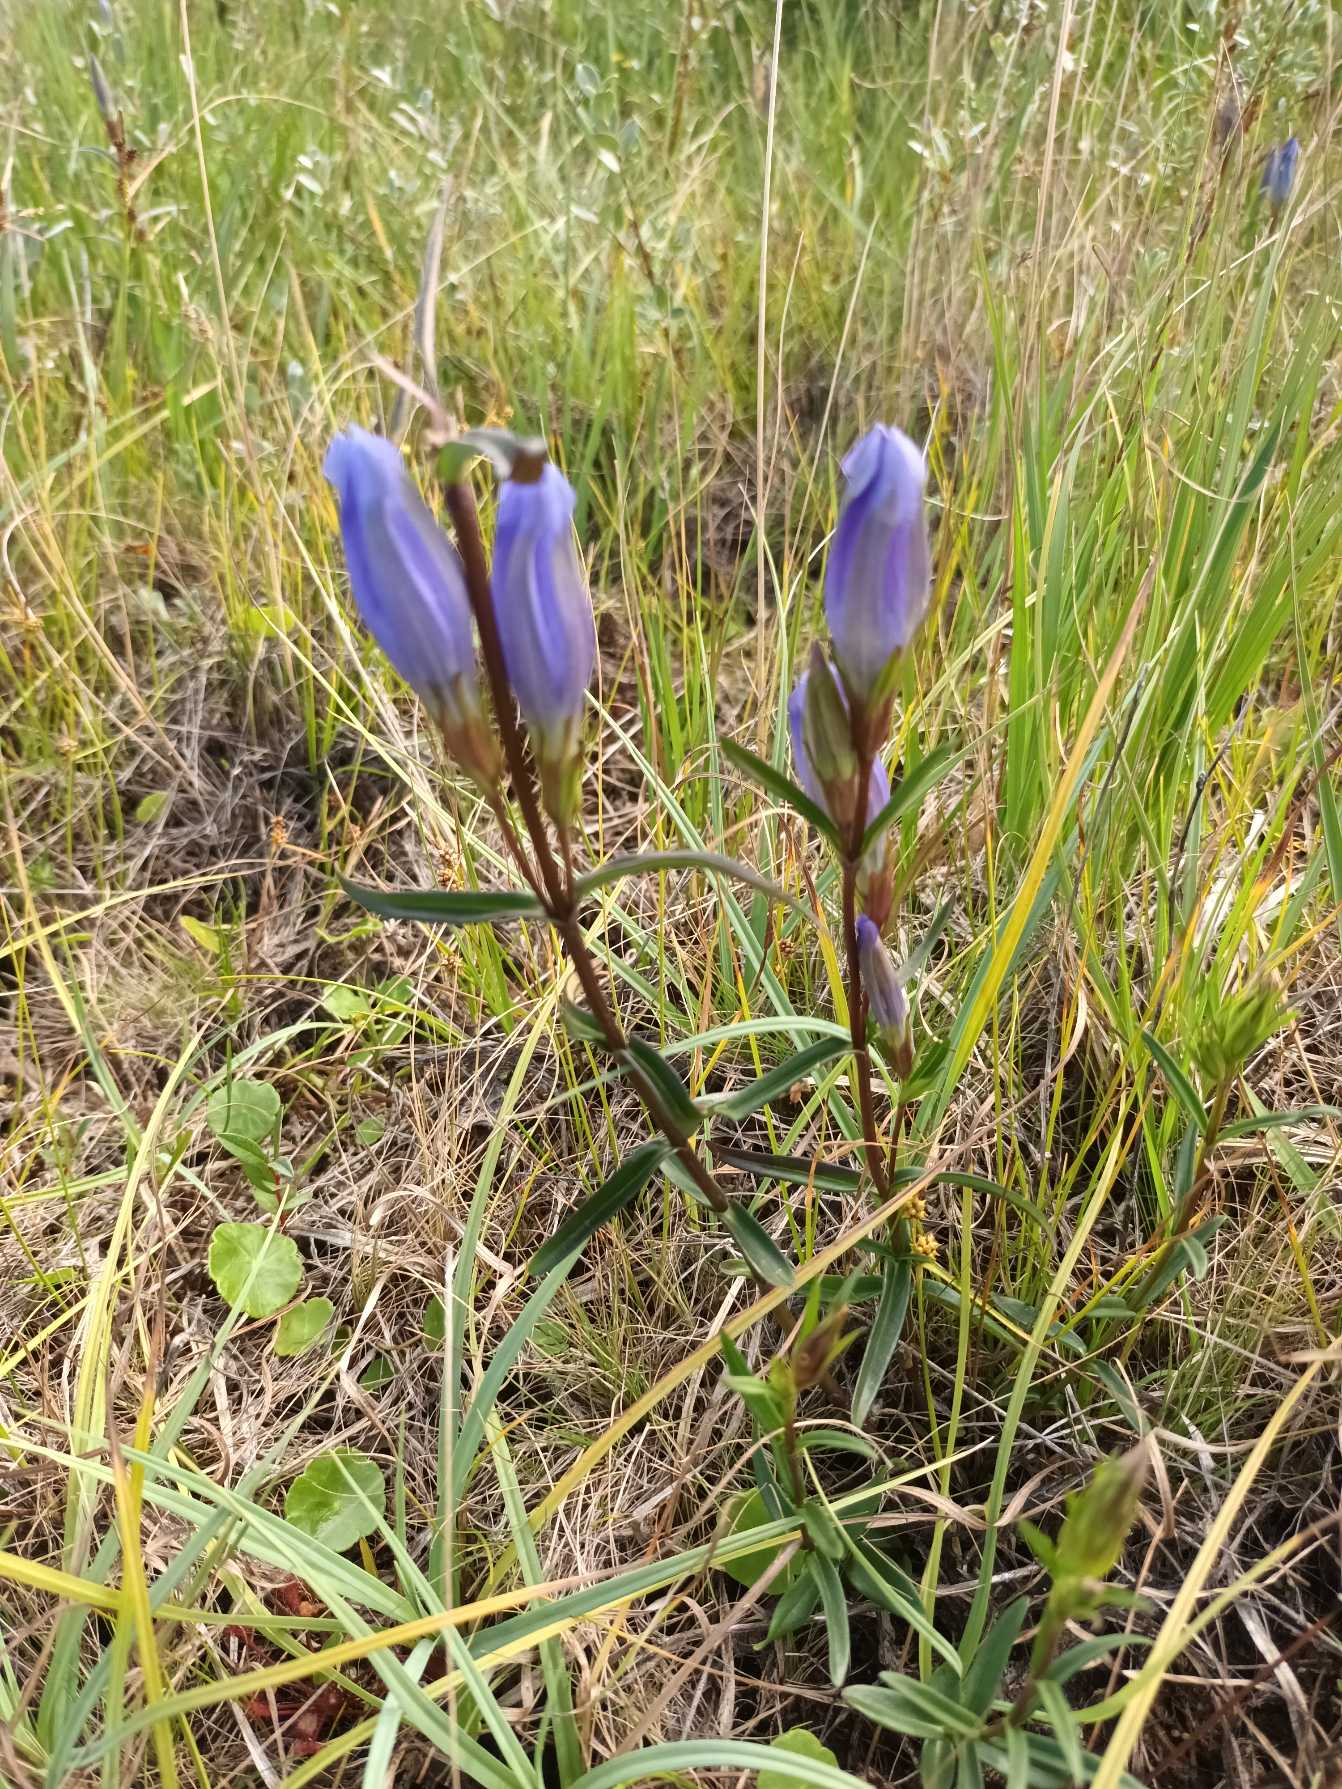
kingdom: Plantae
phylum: Tracheophyta
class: Magnoliopsida
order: Gentianales
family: Gentianaceae
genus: Gentiana
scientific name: Gentiana pneumonanthe
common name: Klokke-ensian
